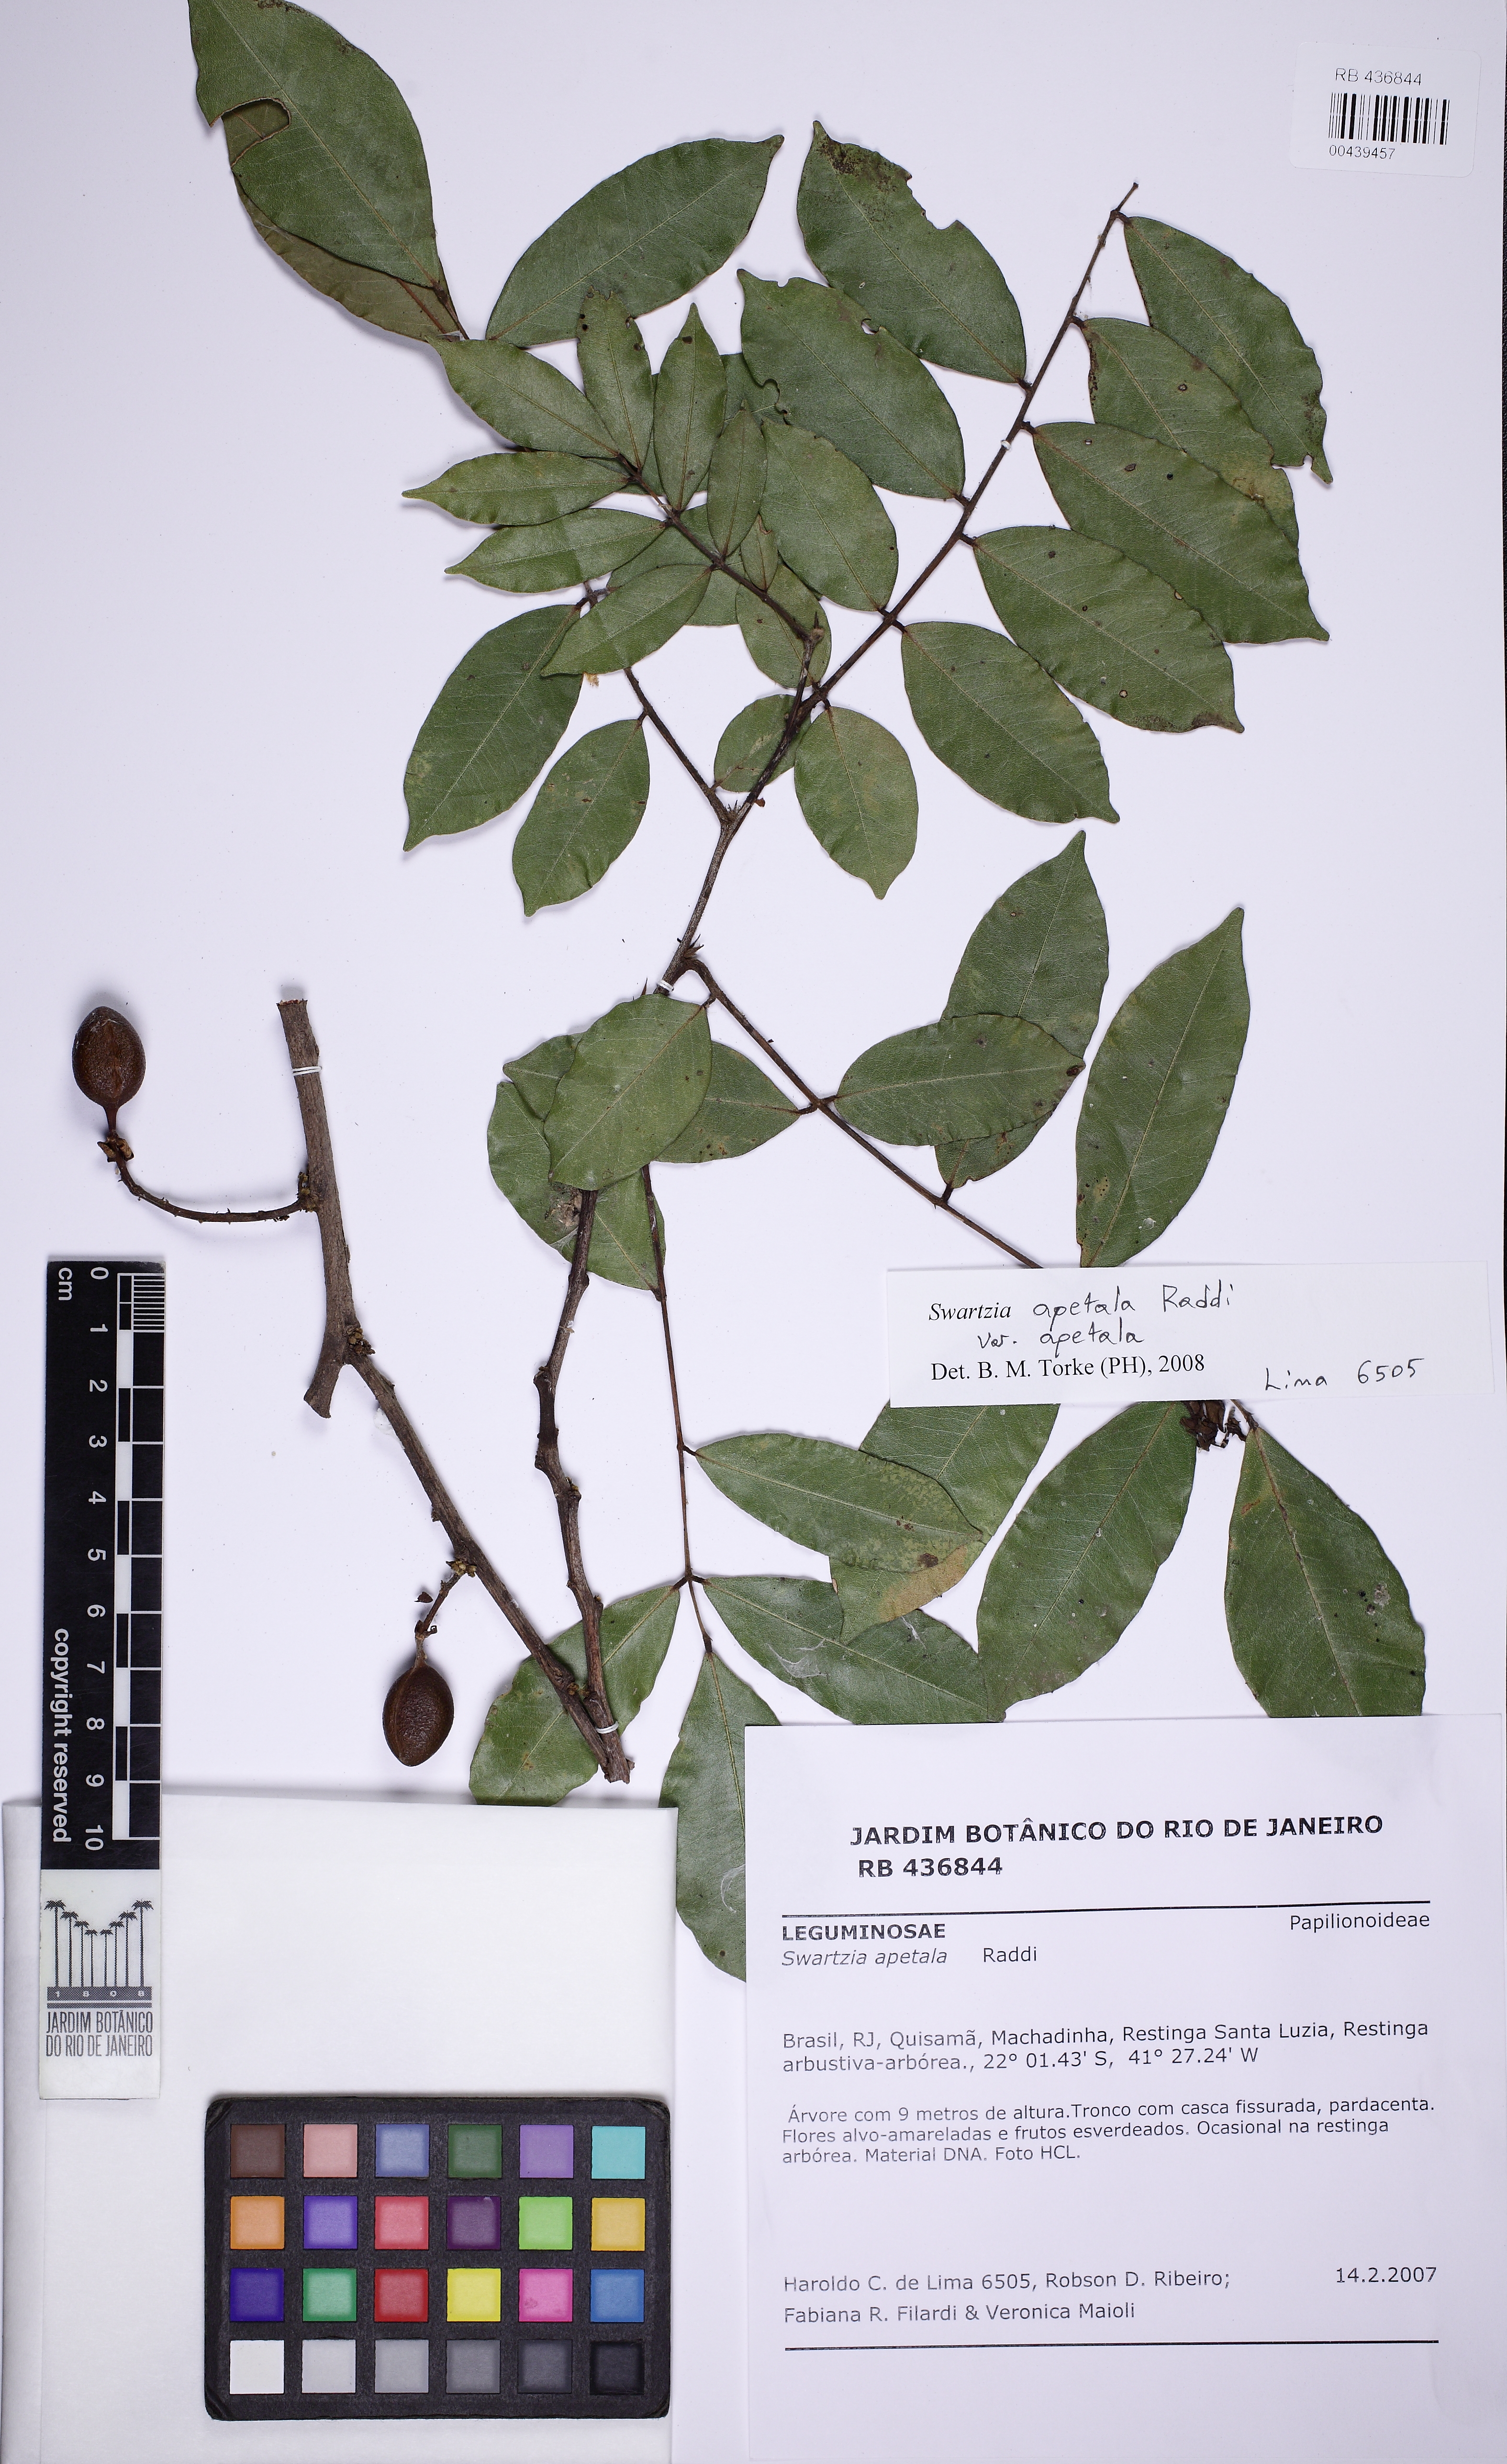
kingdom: Plantae
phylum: Tracheophyta
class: Magnoliopsida
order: Fabales
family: Fabaceae
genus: Swartzia
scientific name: Swartzia apetala
